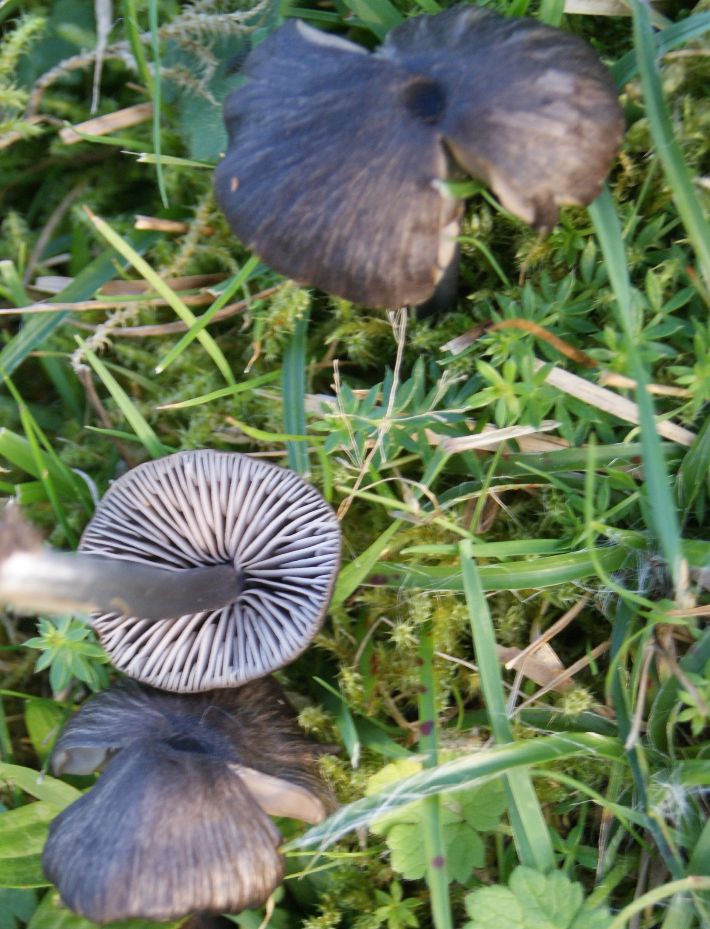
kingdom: Fungi
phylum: Basidiomycota
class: Agaricomycetes
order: Agaricales
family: Entolomataceae
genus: Entoloma
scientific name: Entoloma chalybeum
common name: blåbladet rødblad
